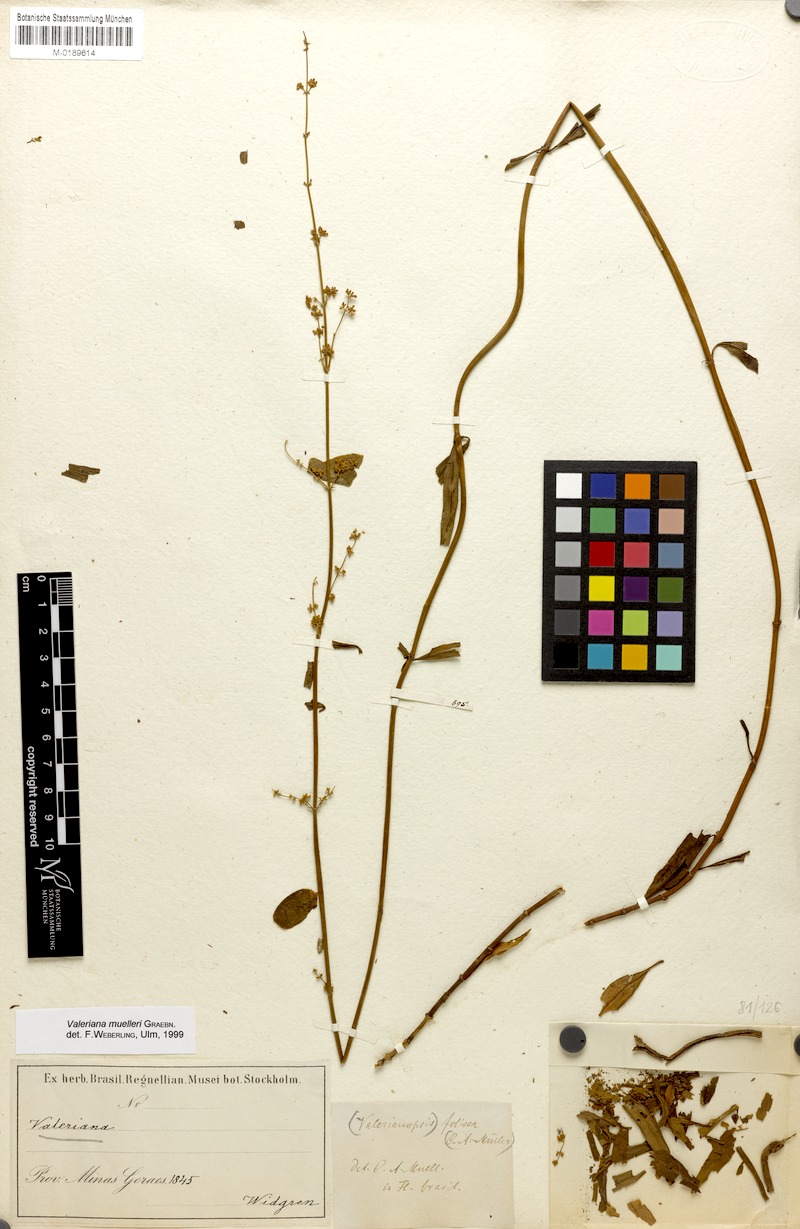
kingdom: Plantae
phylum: Tracheophyta
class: Magnoliopsida
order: Dipsacales
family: Caprifoliaceae
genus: Valeriana
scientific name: Valeriana muelleri
